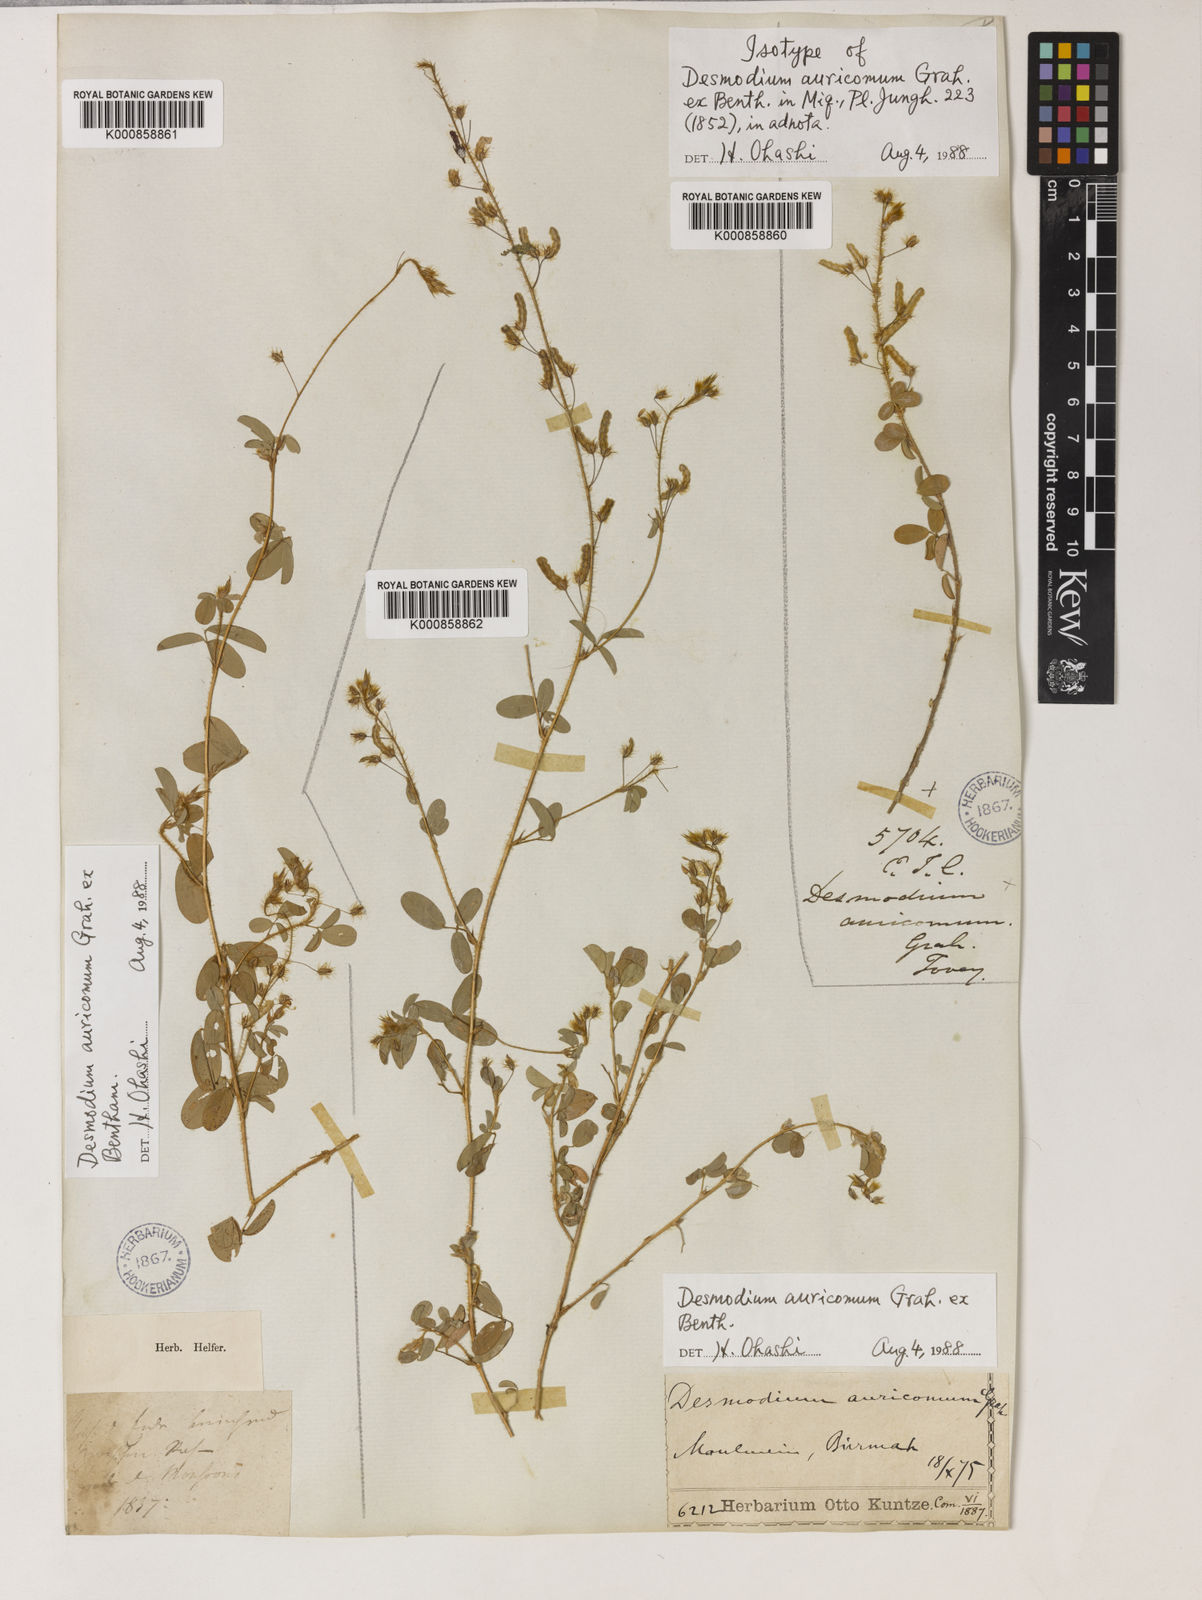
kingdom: Plantae
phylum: Tracheophyta
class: Magnoliopsida
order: Fabales
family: Fabaceae
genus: Grona
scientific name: Grona auricoma
